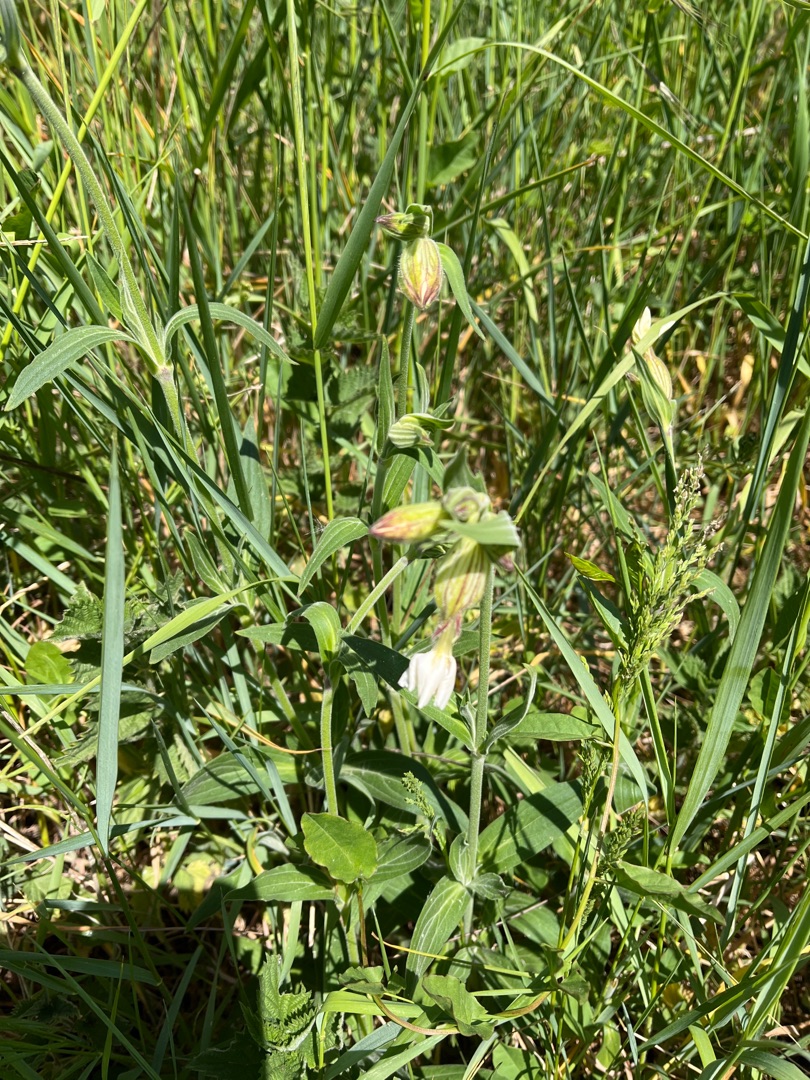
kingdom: Plantae
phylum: Tracheophyta
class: Magnoliopsida
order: Caryophyllales
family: Caryophyllaceae
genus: Silene
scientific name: Silene latifolia
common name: Aftenpragtstjerne
